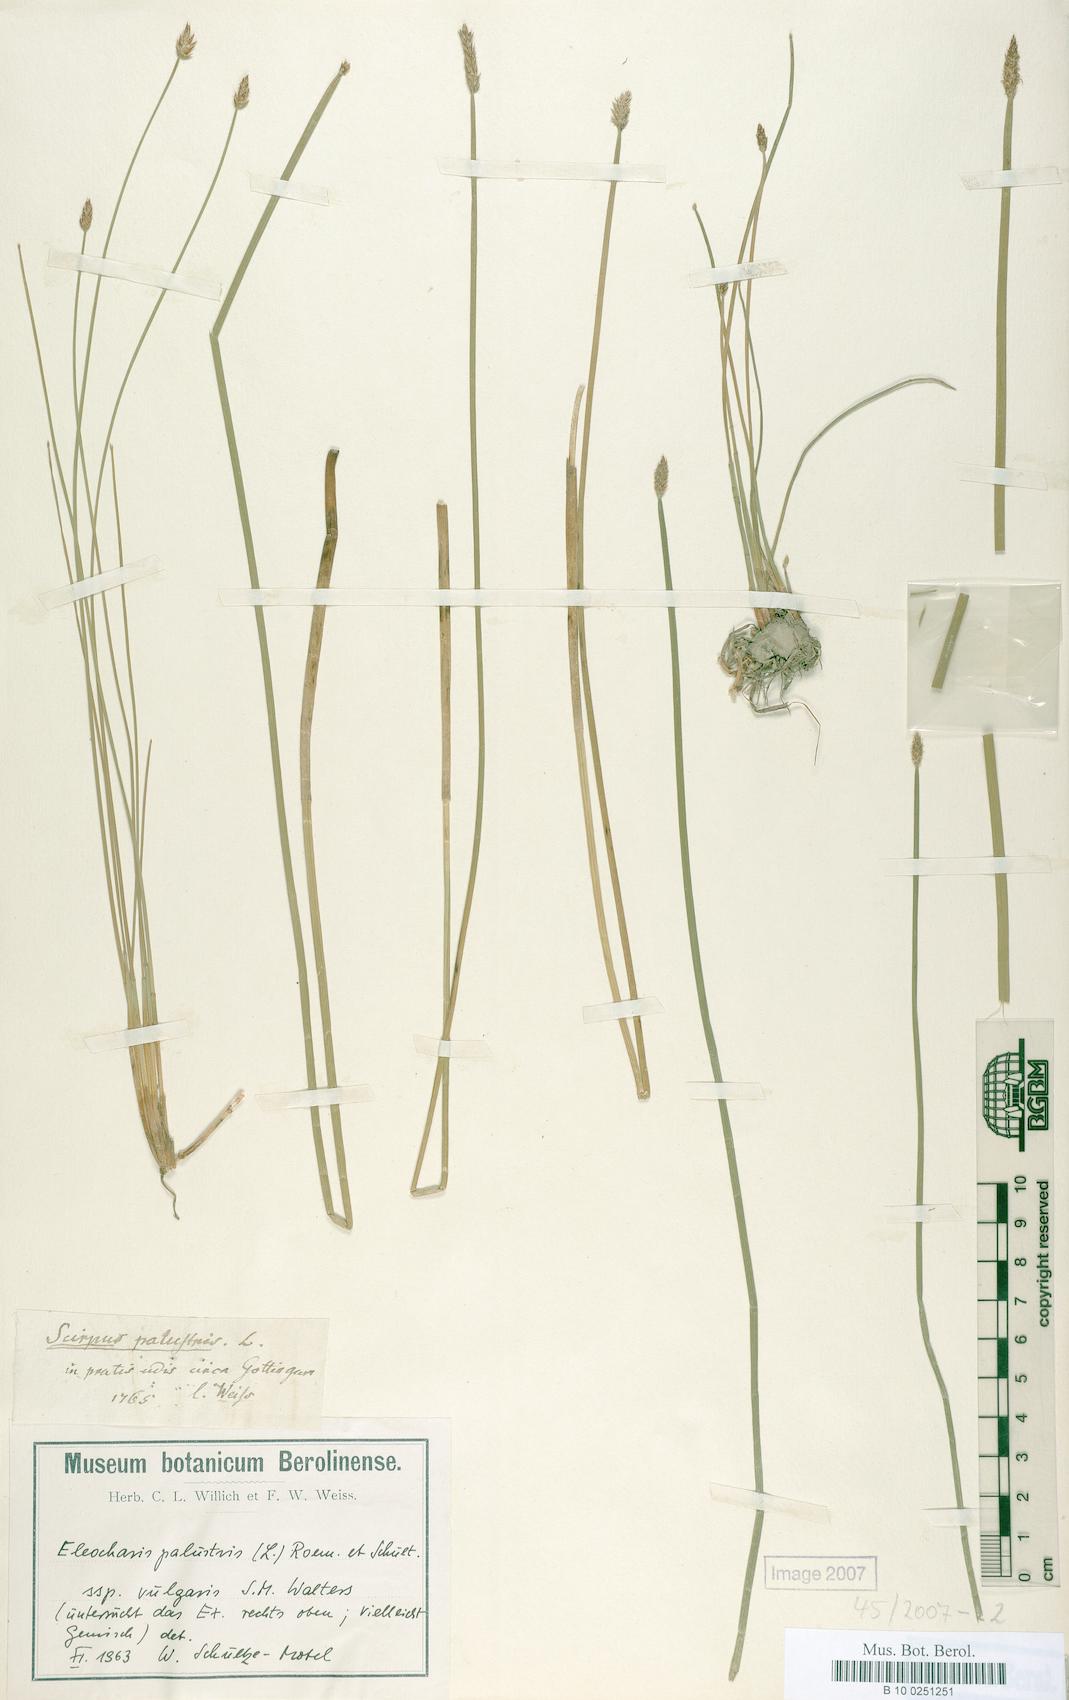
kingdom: Plantae
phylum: Tracheophyta
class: Liliopsida
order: Poales
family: Cyperaceae
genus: Eleocharis
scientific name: Eleocharis palustris
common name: Common spike-rush
